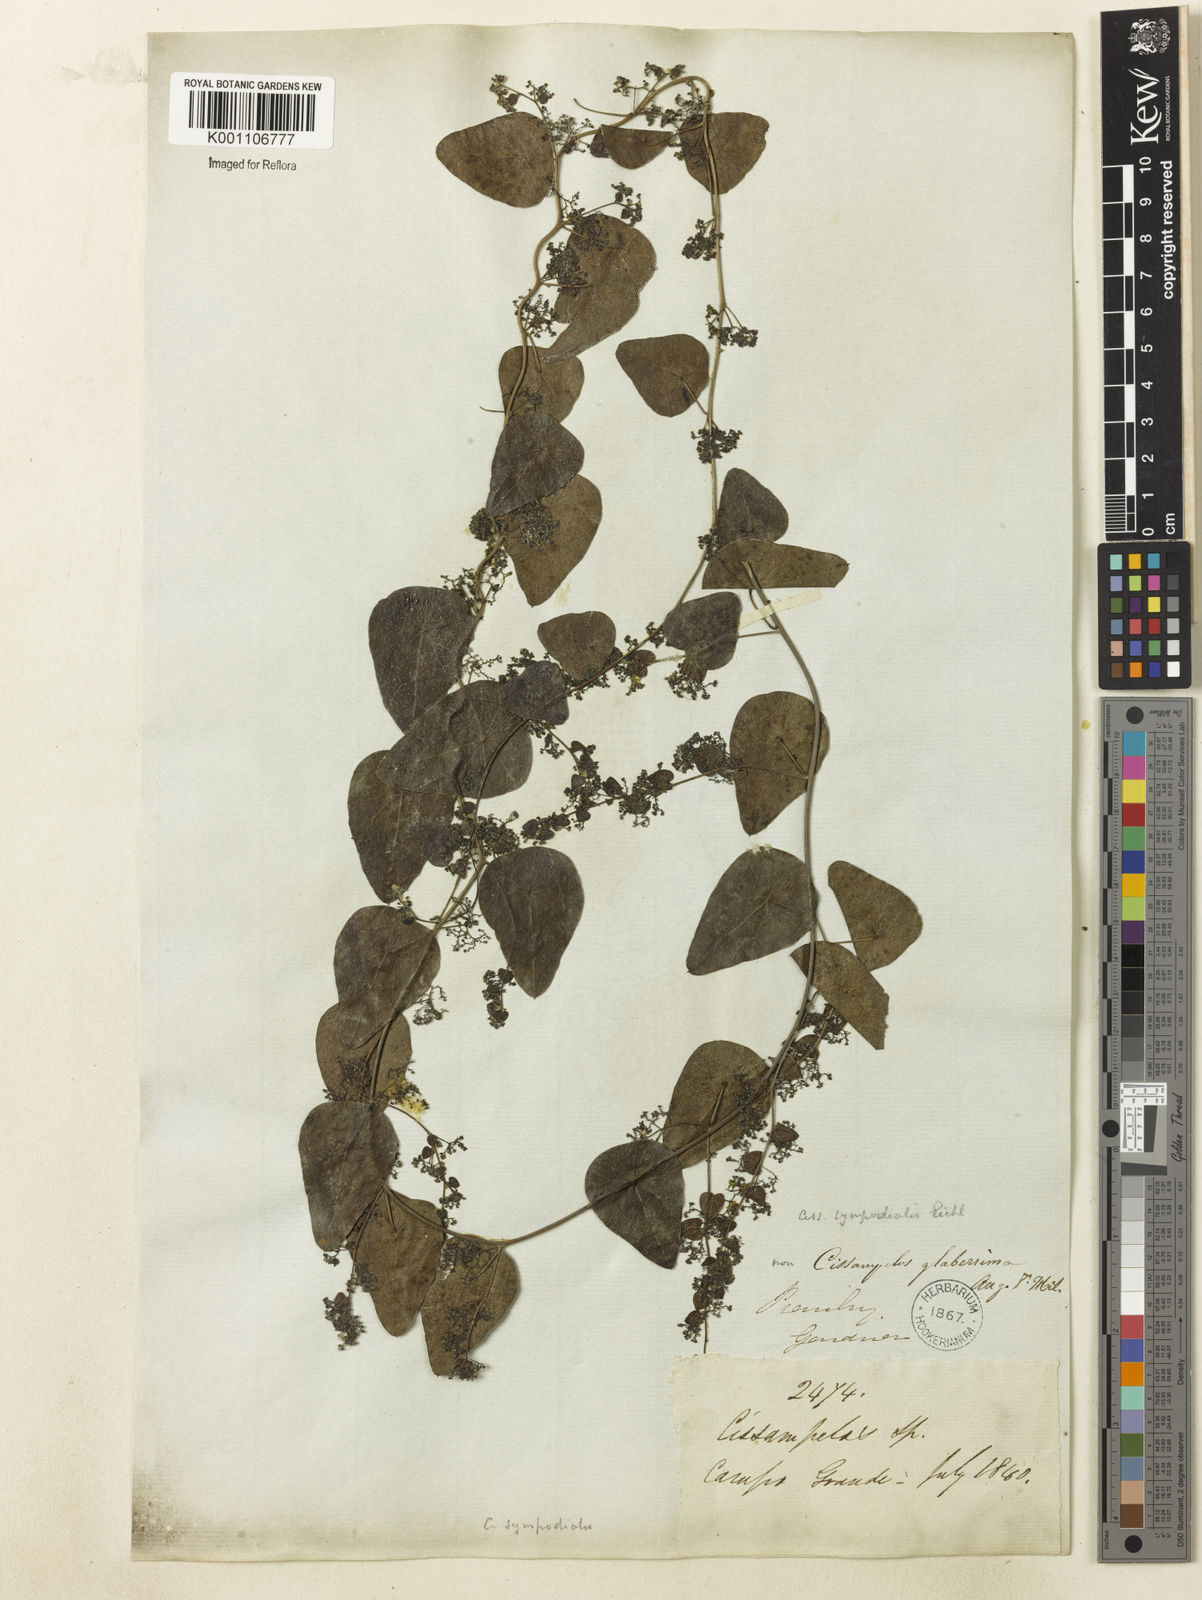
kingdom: Plantae
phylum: Tracheophyta
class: Magnoliopsida
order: Ranunculales
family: Menispermaceae
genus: Cissampelos
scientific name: Cissampelos sympodialis
